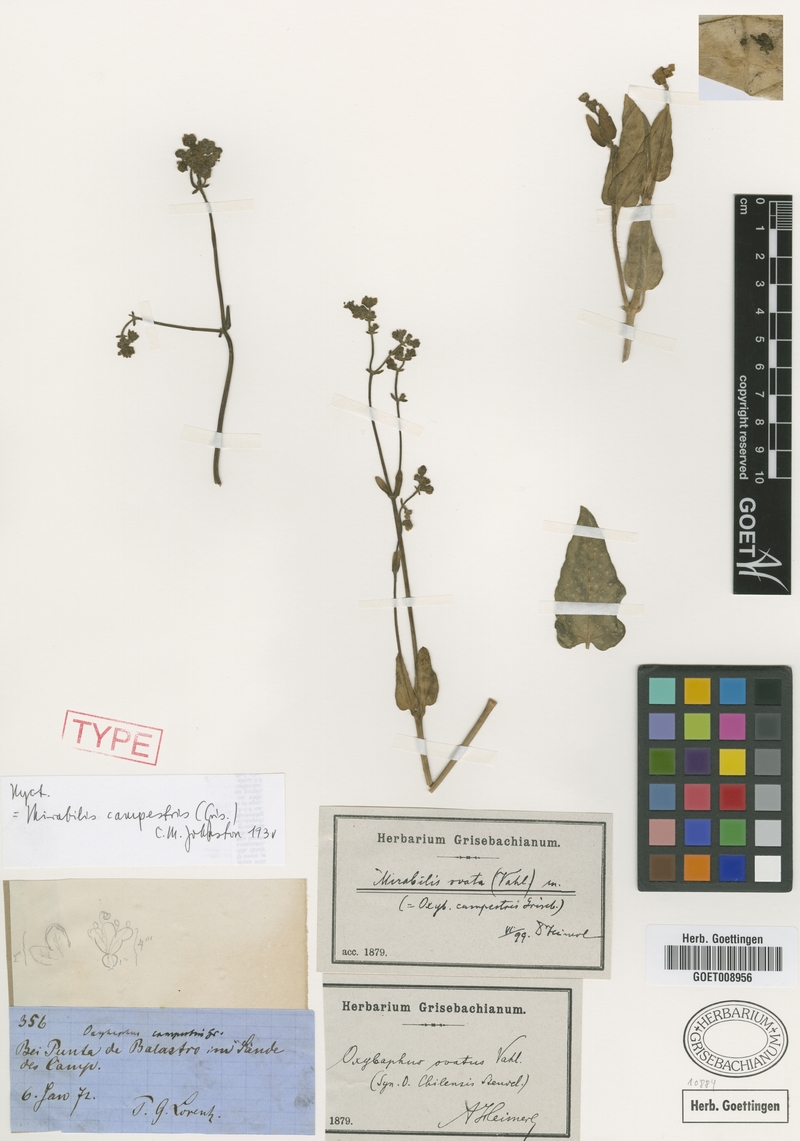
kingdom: Plantae
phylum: Tracheophyta
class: Magnoliopsida
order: Caryophyllales
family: Nyctaginaceae
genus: Mirabilis
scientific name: Mirabilis ovata
